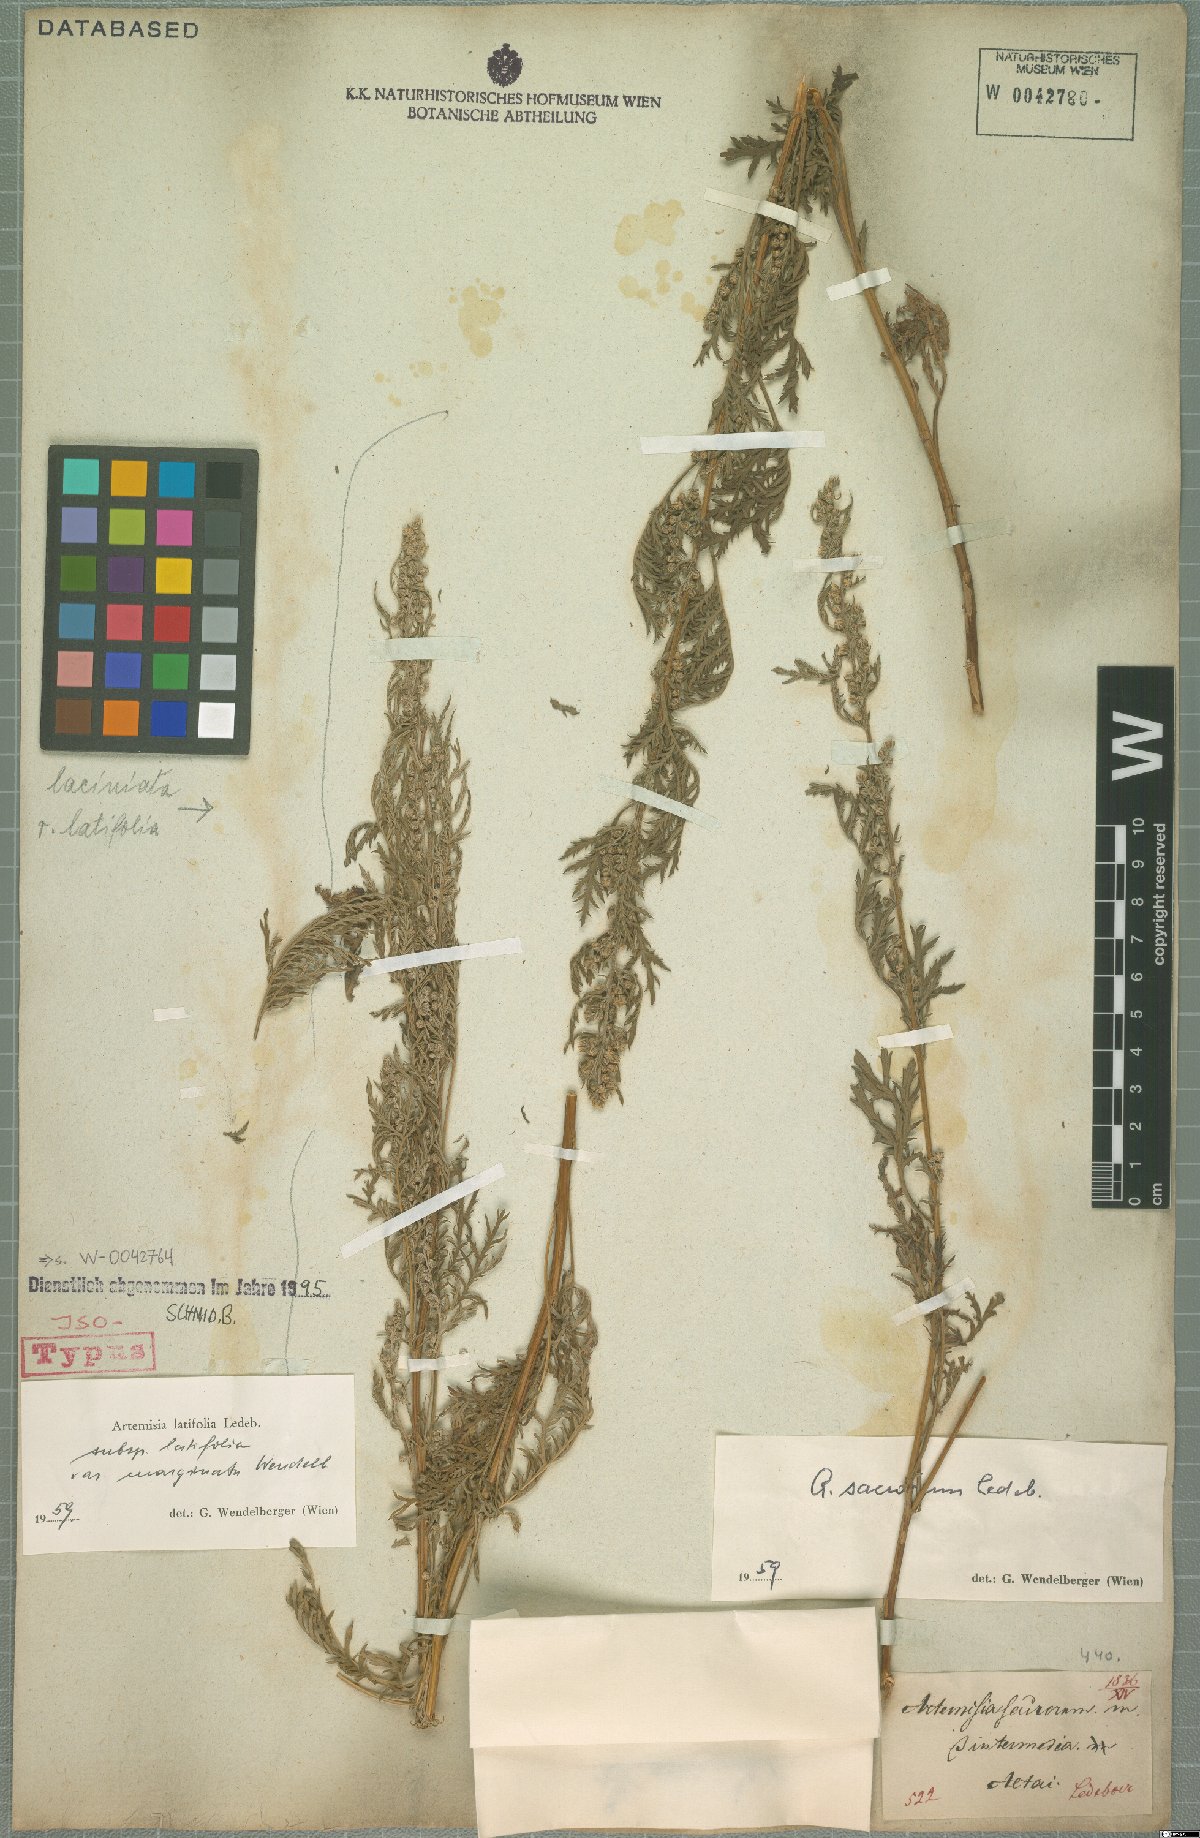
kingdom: Plantae
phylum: Tracheophyta
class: Magnoliopsida
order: Asterales
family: Asteraceae
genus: Artemisia
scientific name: Artemisia gmelinii
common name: Gmelin's wormwood
